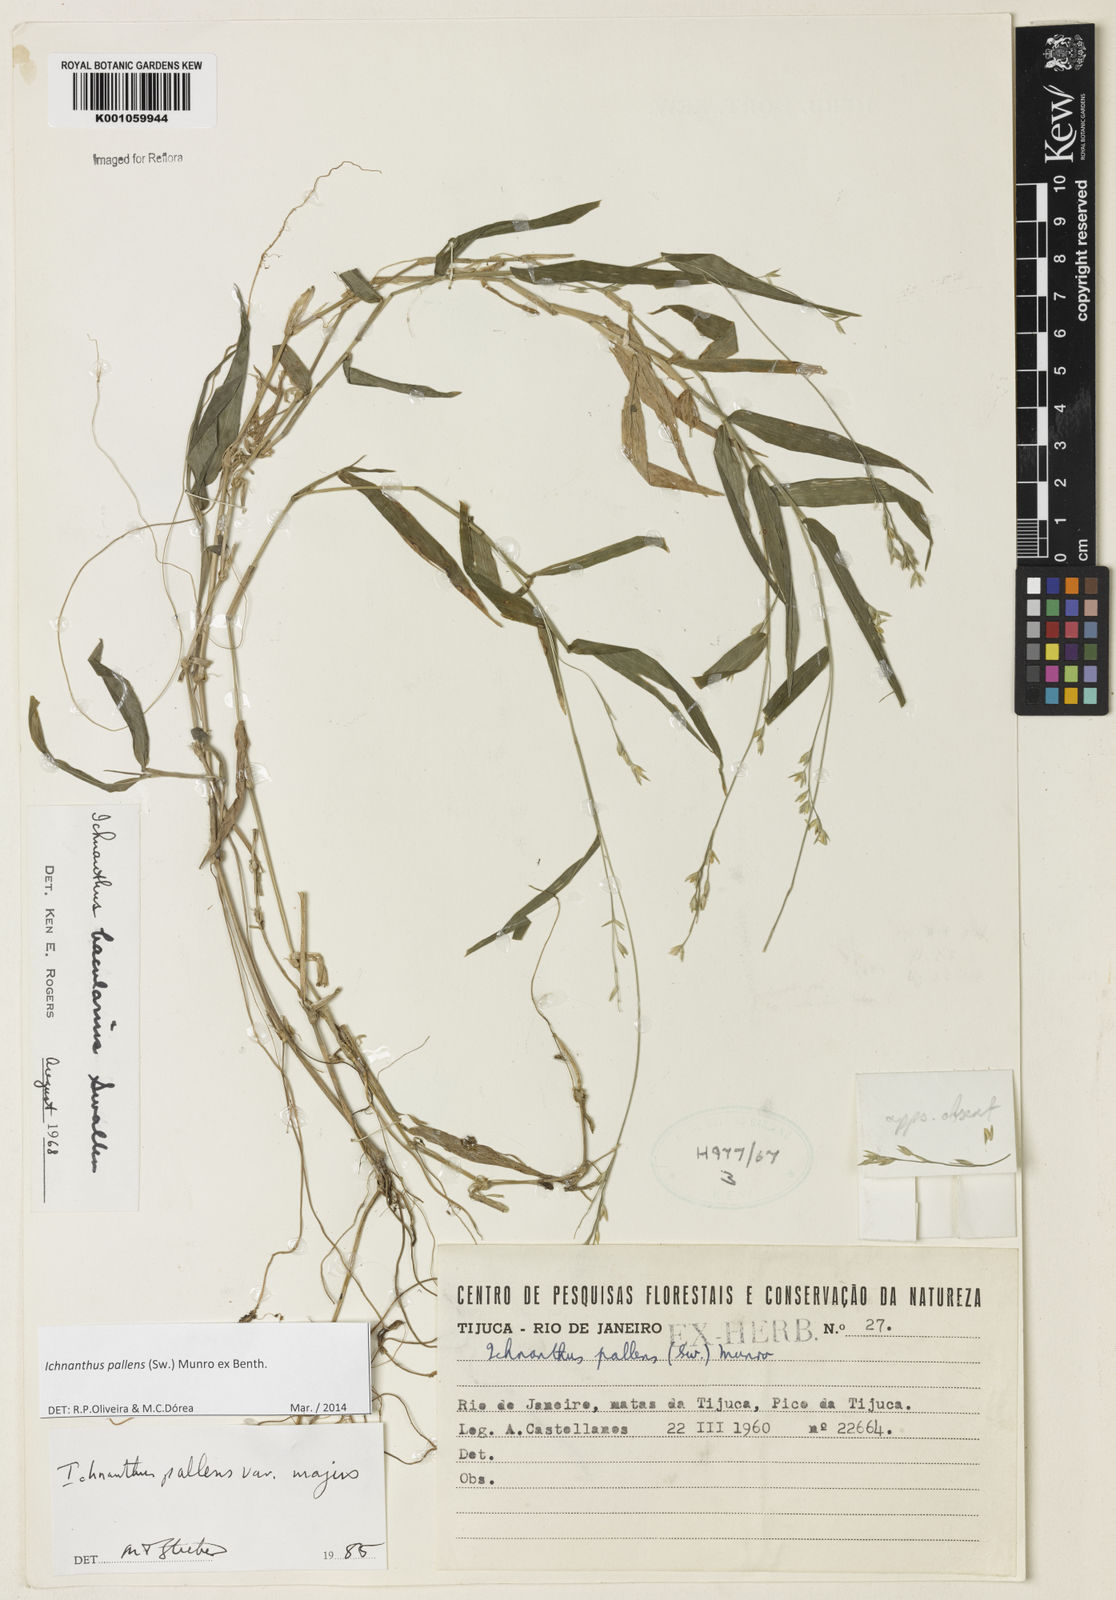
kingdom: Plantae
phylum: Tracheophyta
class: Liliopsida
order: Poales
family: Poaceae
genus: Ichnanthus
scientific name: Ichnanthus pallens
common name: Water grass
